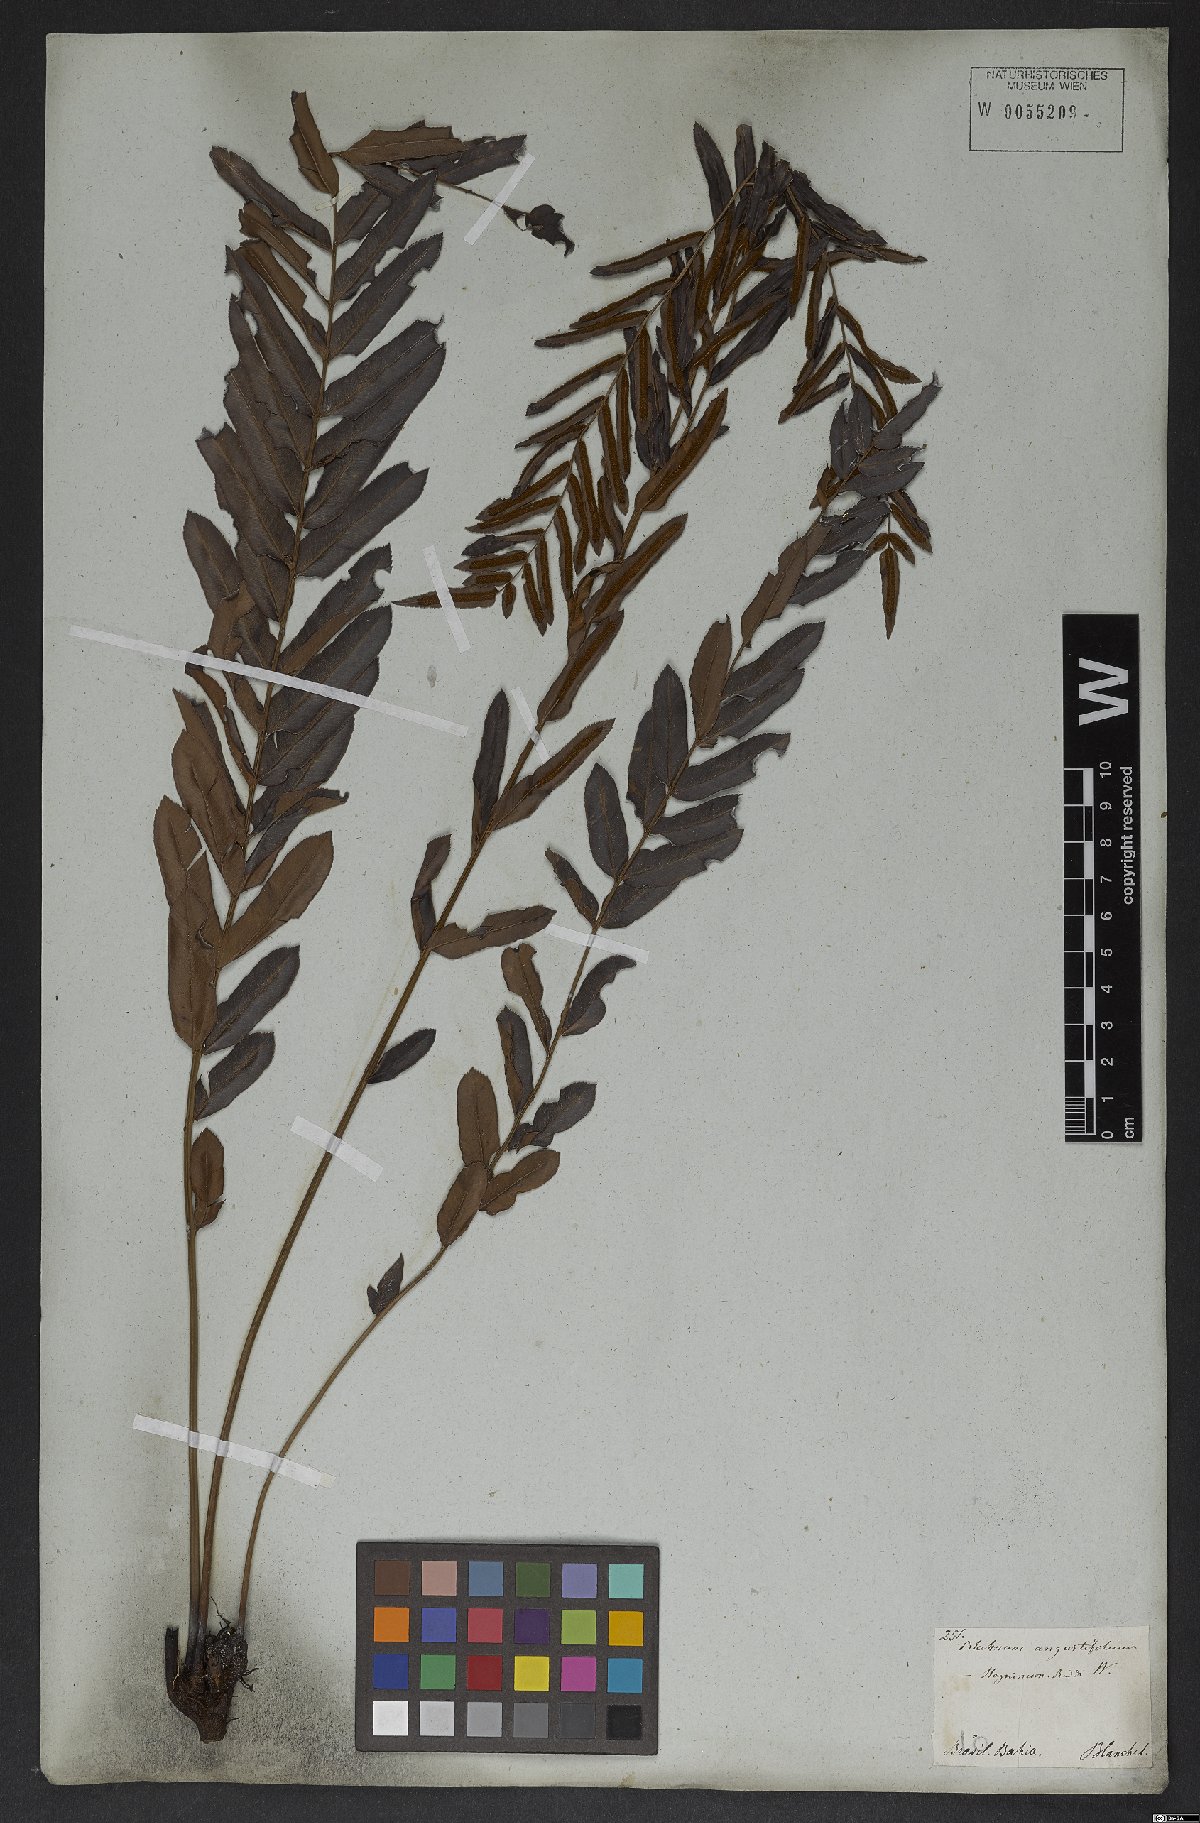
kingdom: Plantae
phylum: Tracheophyta
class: Polypodiopsida
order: Polypodiales
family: Blechnaceae
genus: Telmatoblechnum
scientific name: Telmatoblechnum serrulatum
